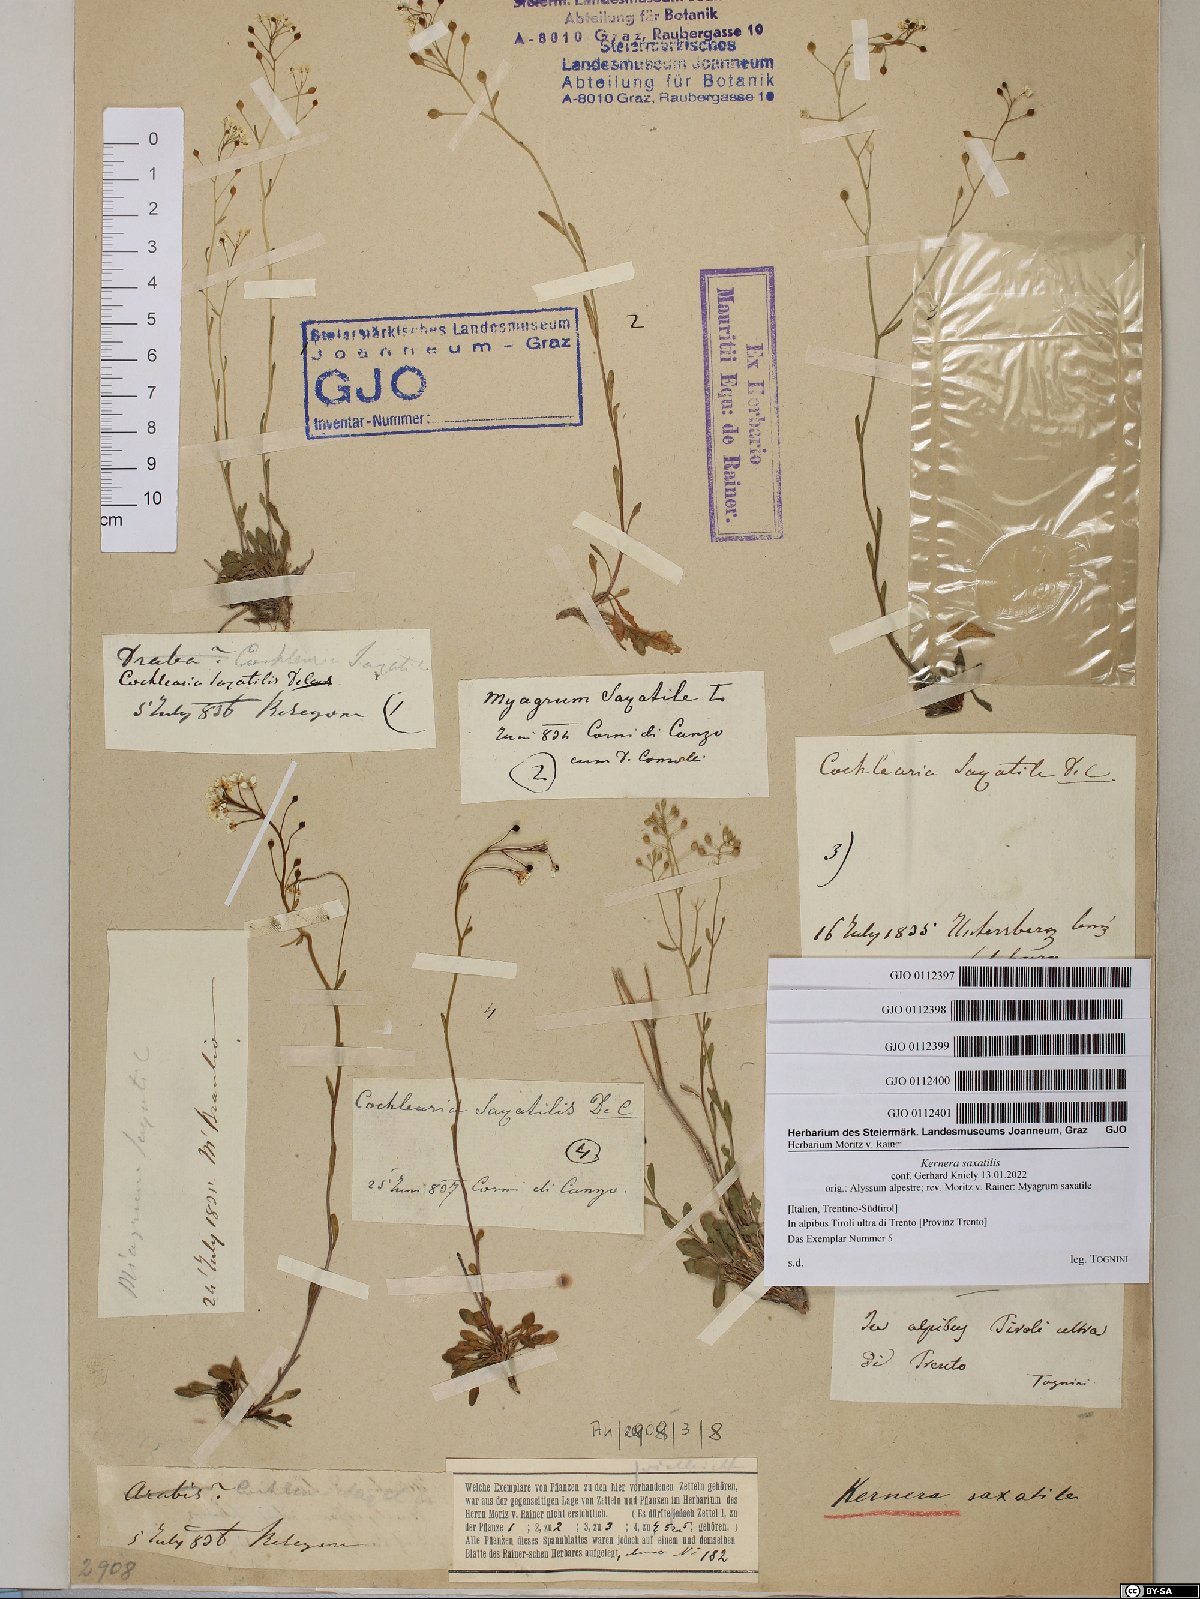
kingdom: Plantae
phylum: Tracheophyta
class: Magnoliopsida
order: Brassicales
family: Brassicaceae
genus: Kernera
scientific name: Kernera saxatilis
